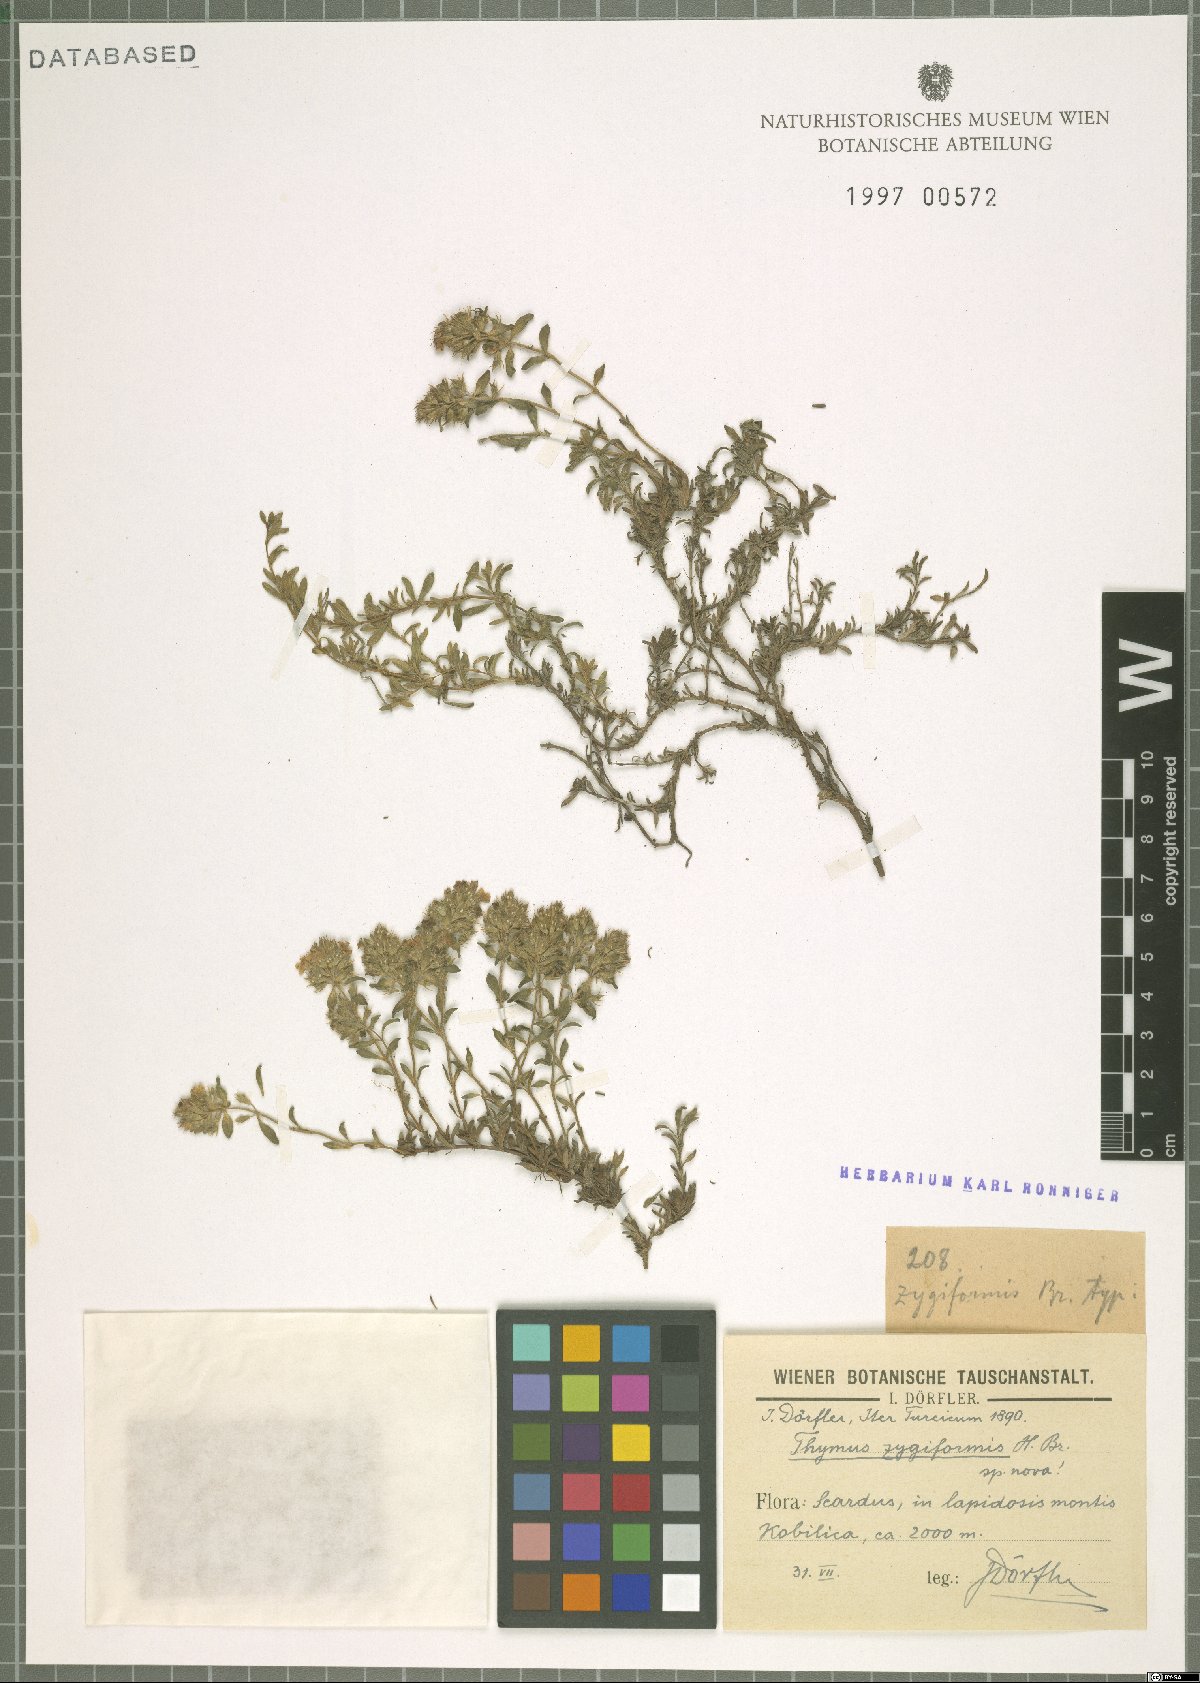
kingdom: Plantae
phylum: Tracheophyta
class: Magnoliopsida
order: Lamiales
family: Lamiaceae
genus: Thymus
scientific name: Thymus praecox
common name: Wild thyme
